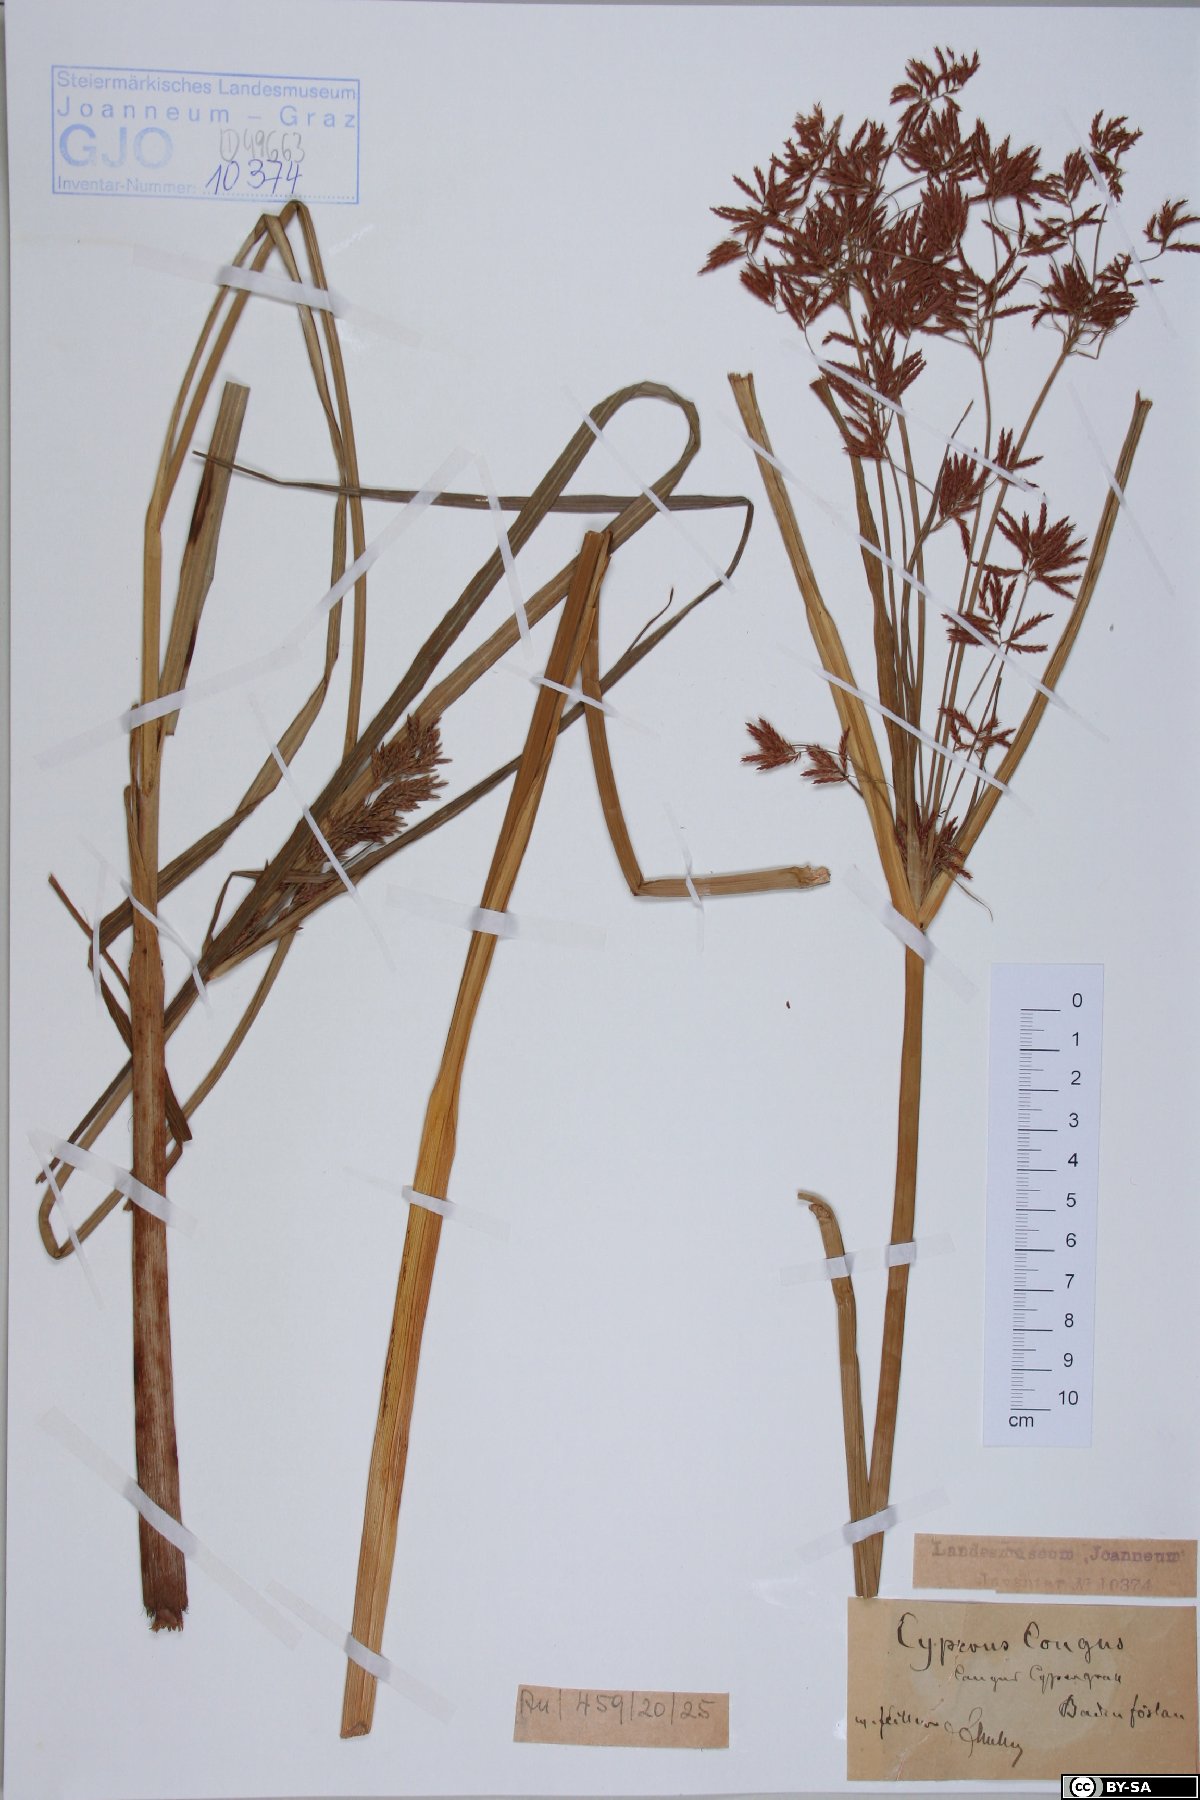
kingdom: Plantae
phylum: Tracheophyta
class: Liliopsida
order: Poales
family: Cyperaceae
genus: Cyperus
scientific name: Cyperus longus
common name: Galingale
